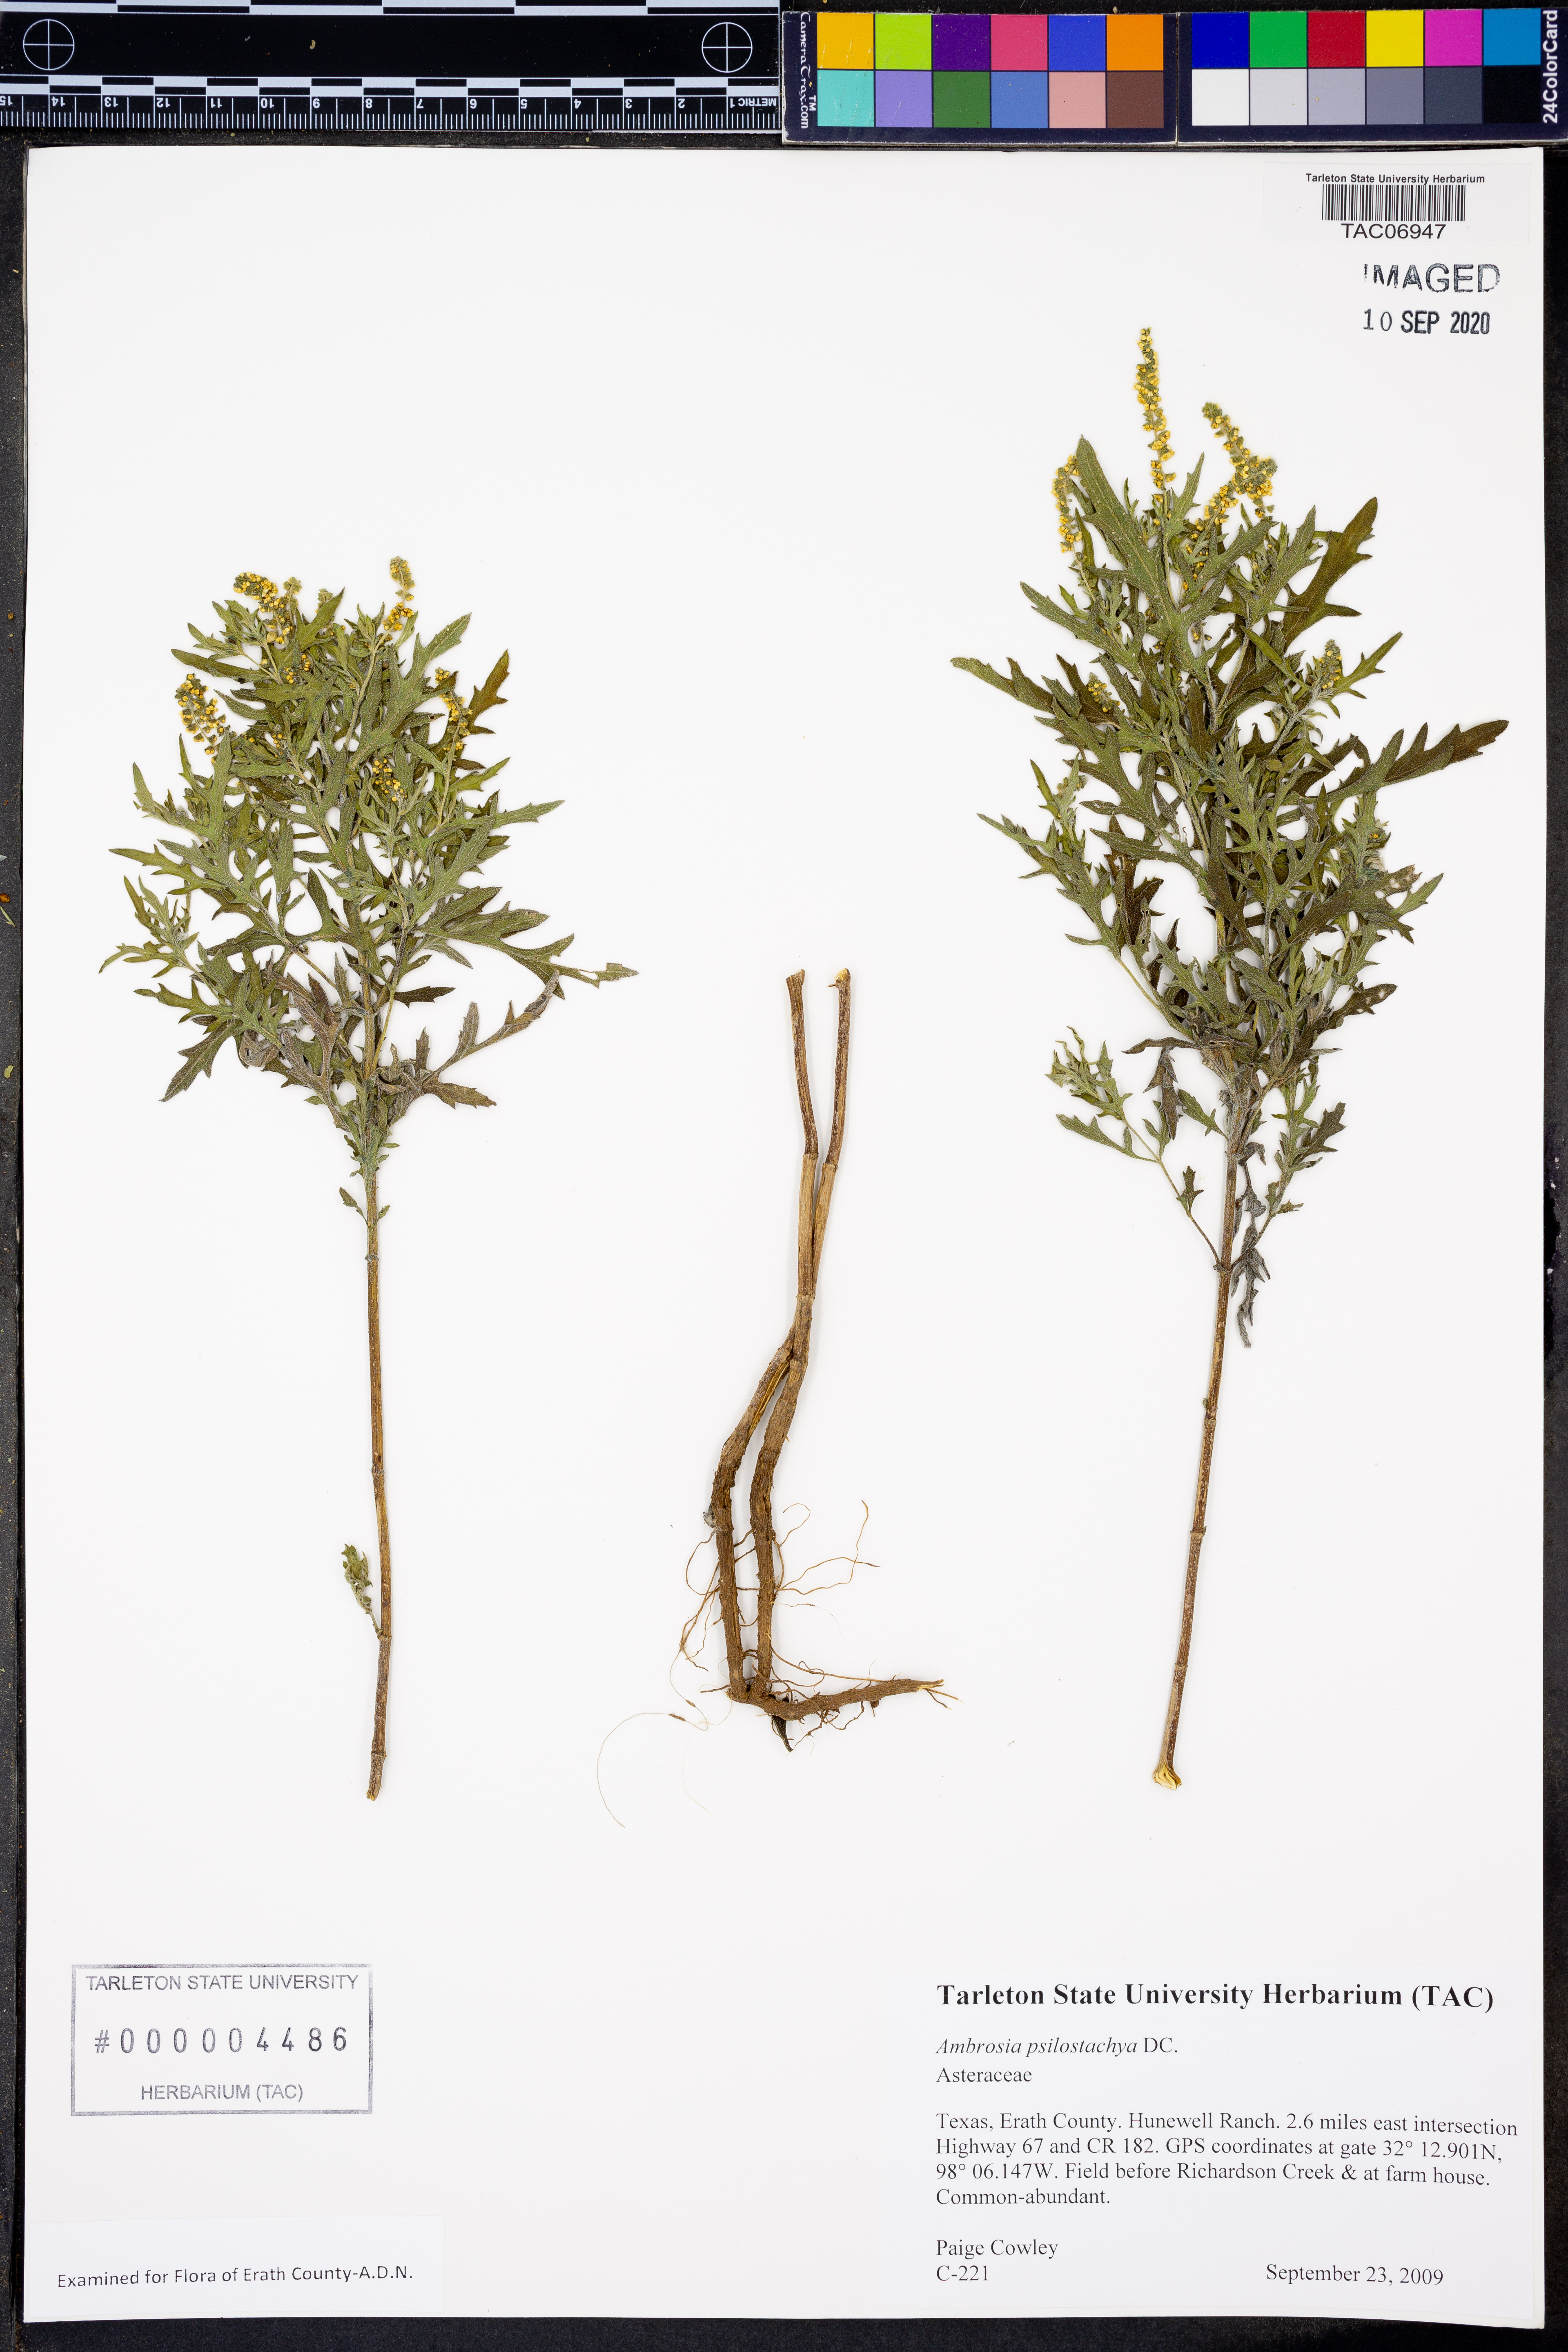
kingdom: Plantae
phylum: Tracheophyta
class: Magnoliopsida
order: Asterales
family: Asteraceae
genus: Ambrosia
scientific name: Ambrosia psilostachya
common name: Perennial ragweed
